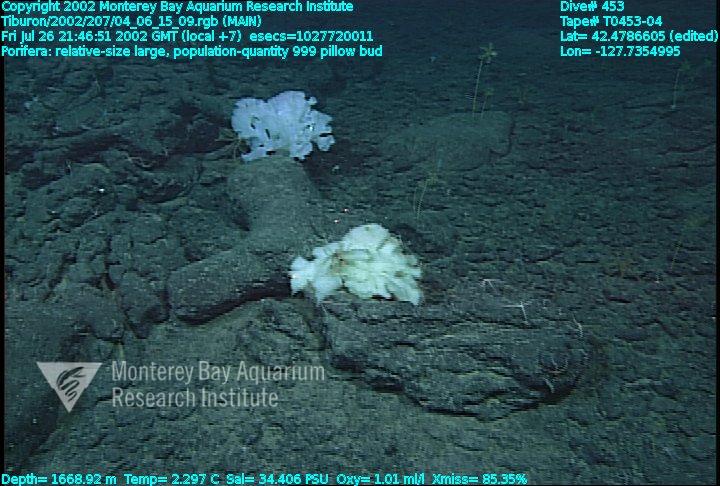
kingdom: Animalia
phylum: Porifera
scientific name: Porifera
